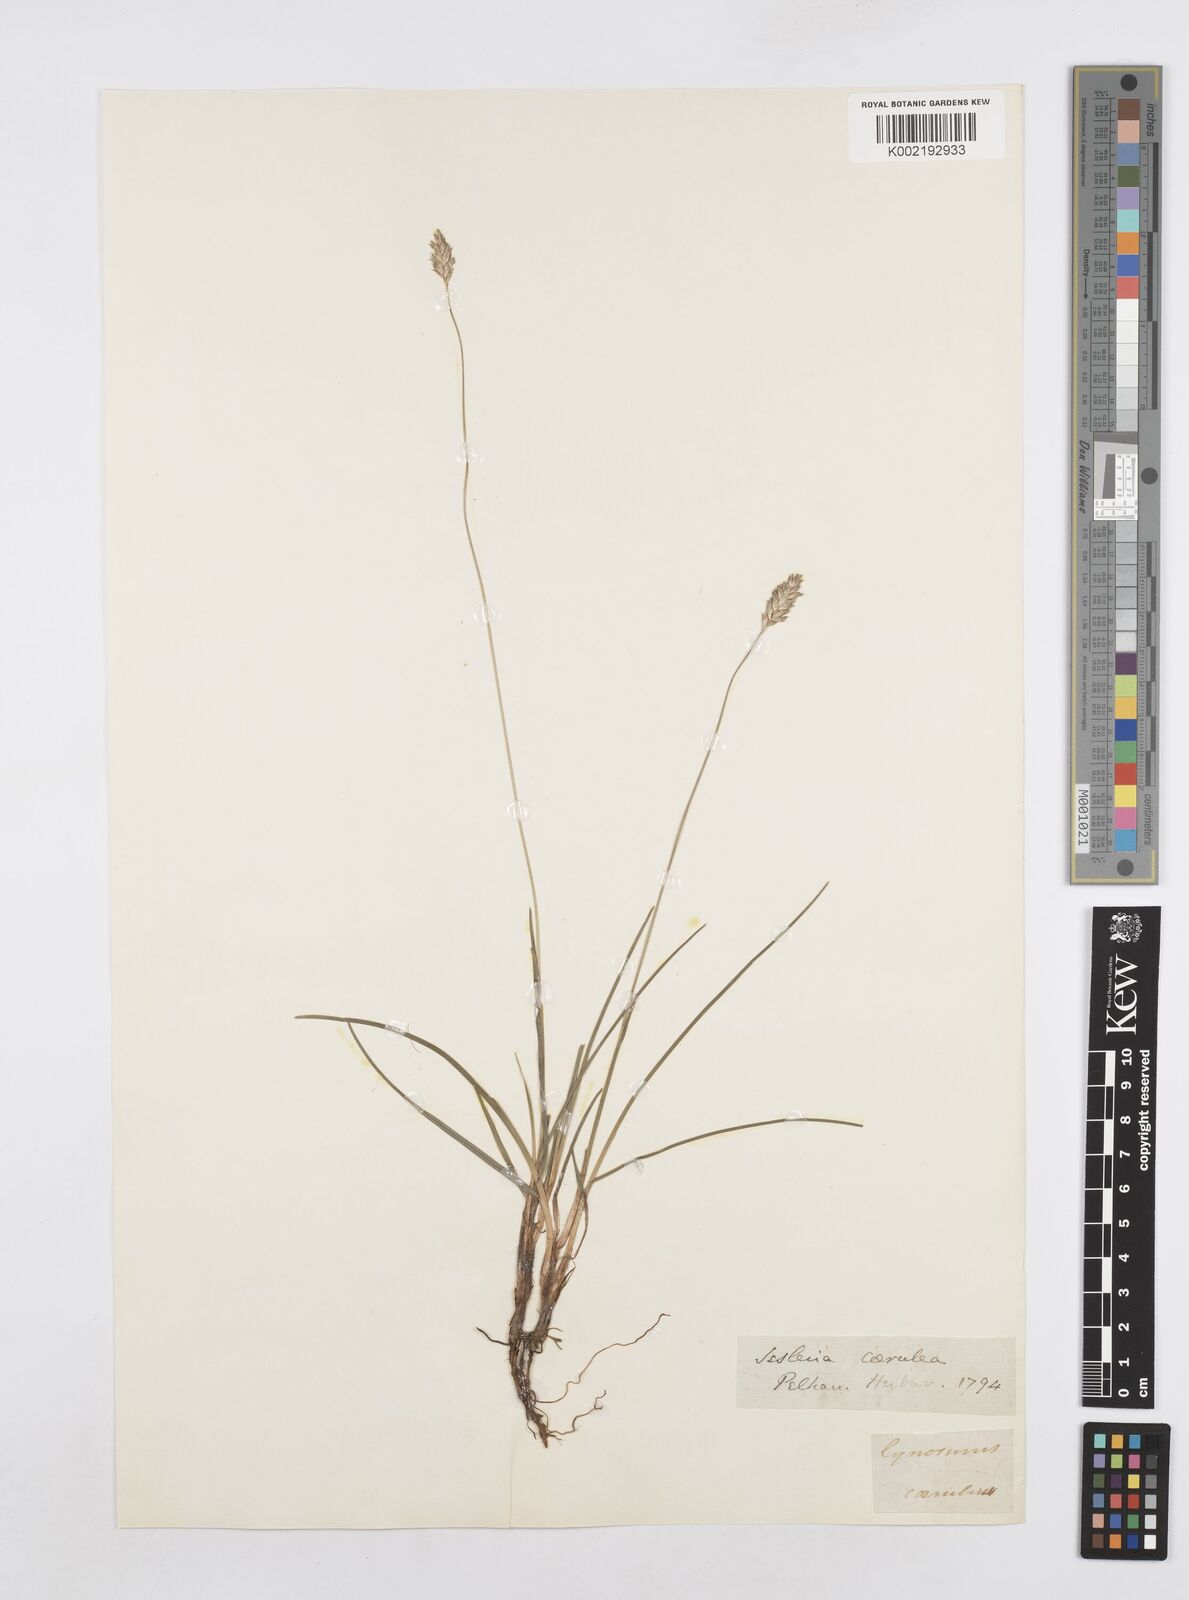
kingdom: Plantae
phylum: Tracheophyta
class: Liliopsida
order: Poales
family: Poaceae
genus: Sesleria
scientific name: Sesleria caerulea
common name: Blue moor-grass
